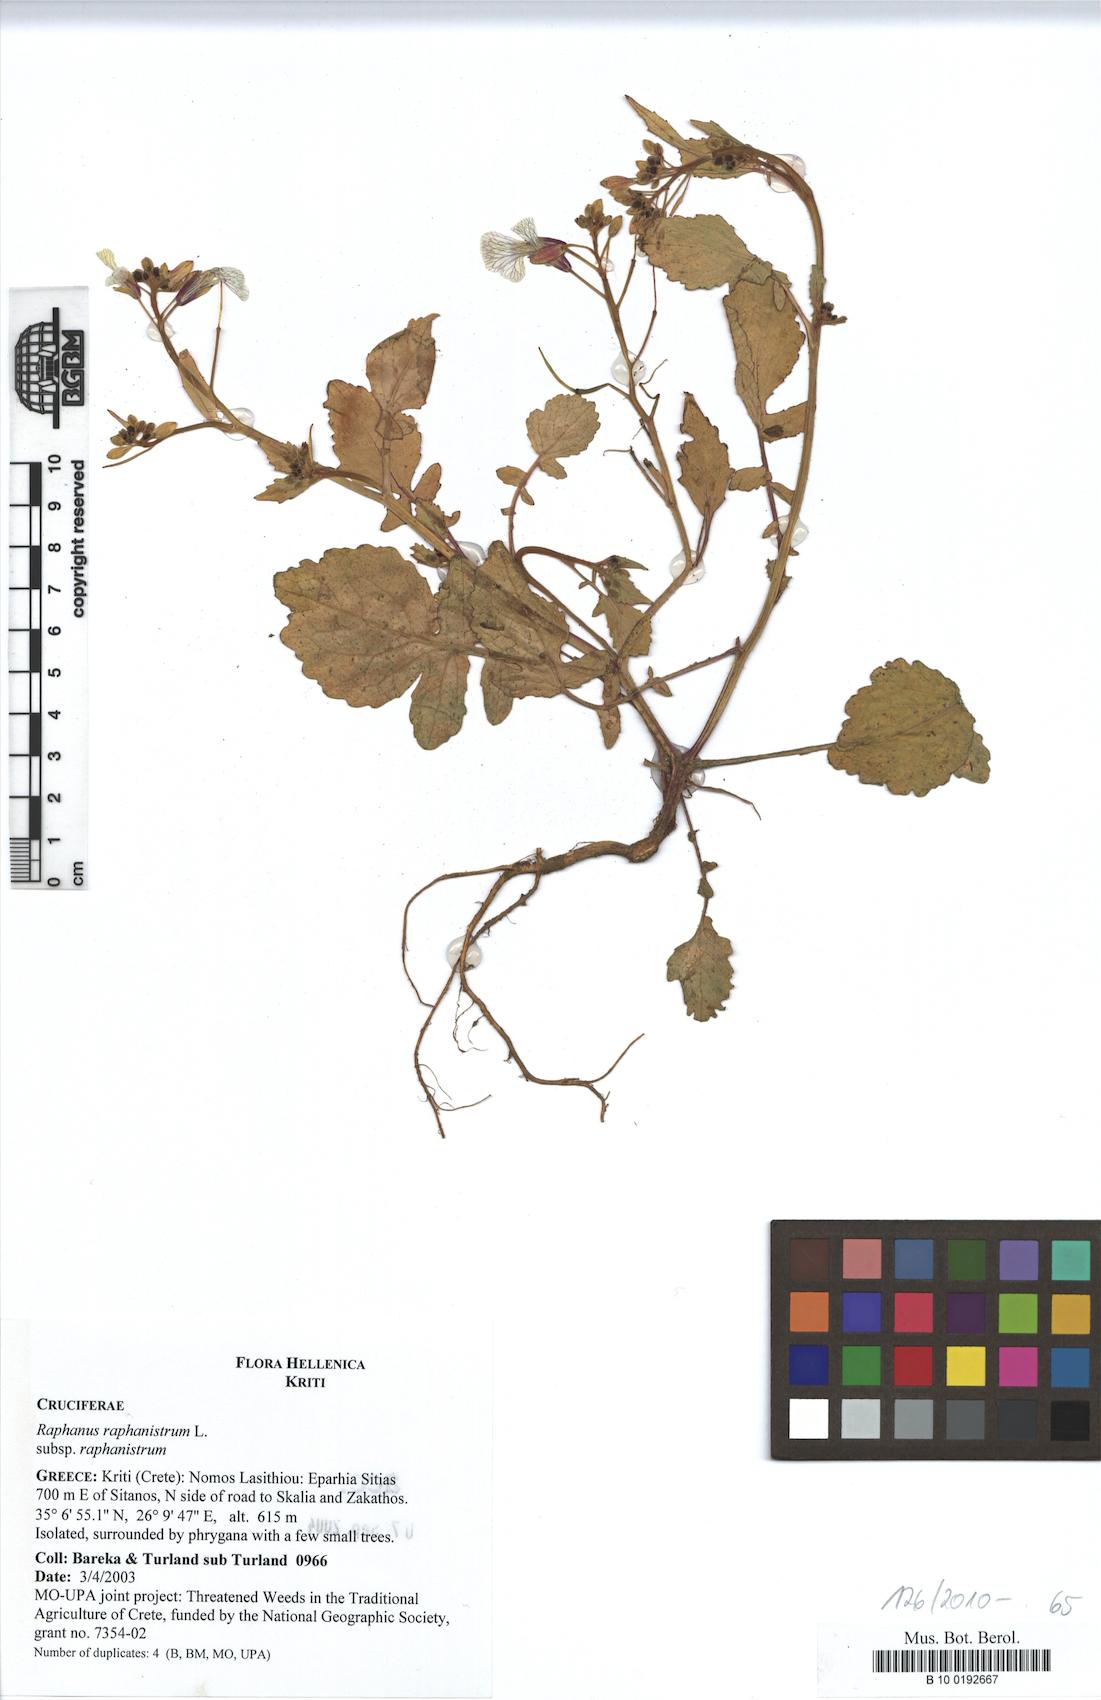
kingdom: Plantae
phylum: Tracheophyta
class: Magnoliopsida
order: Brassicales
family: Brassicaceae
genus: Raphanus
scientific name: Raphanus raphanistrum
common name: Wild radish
